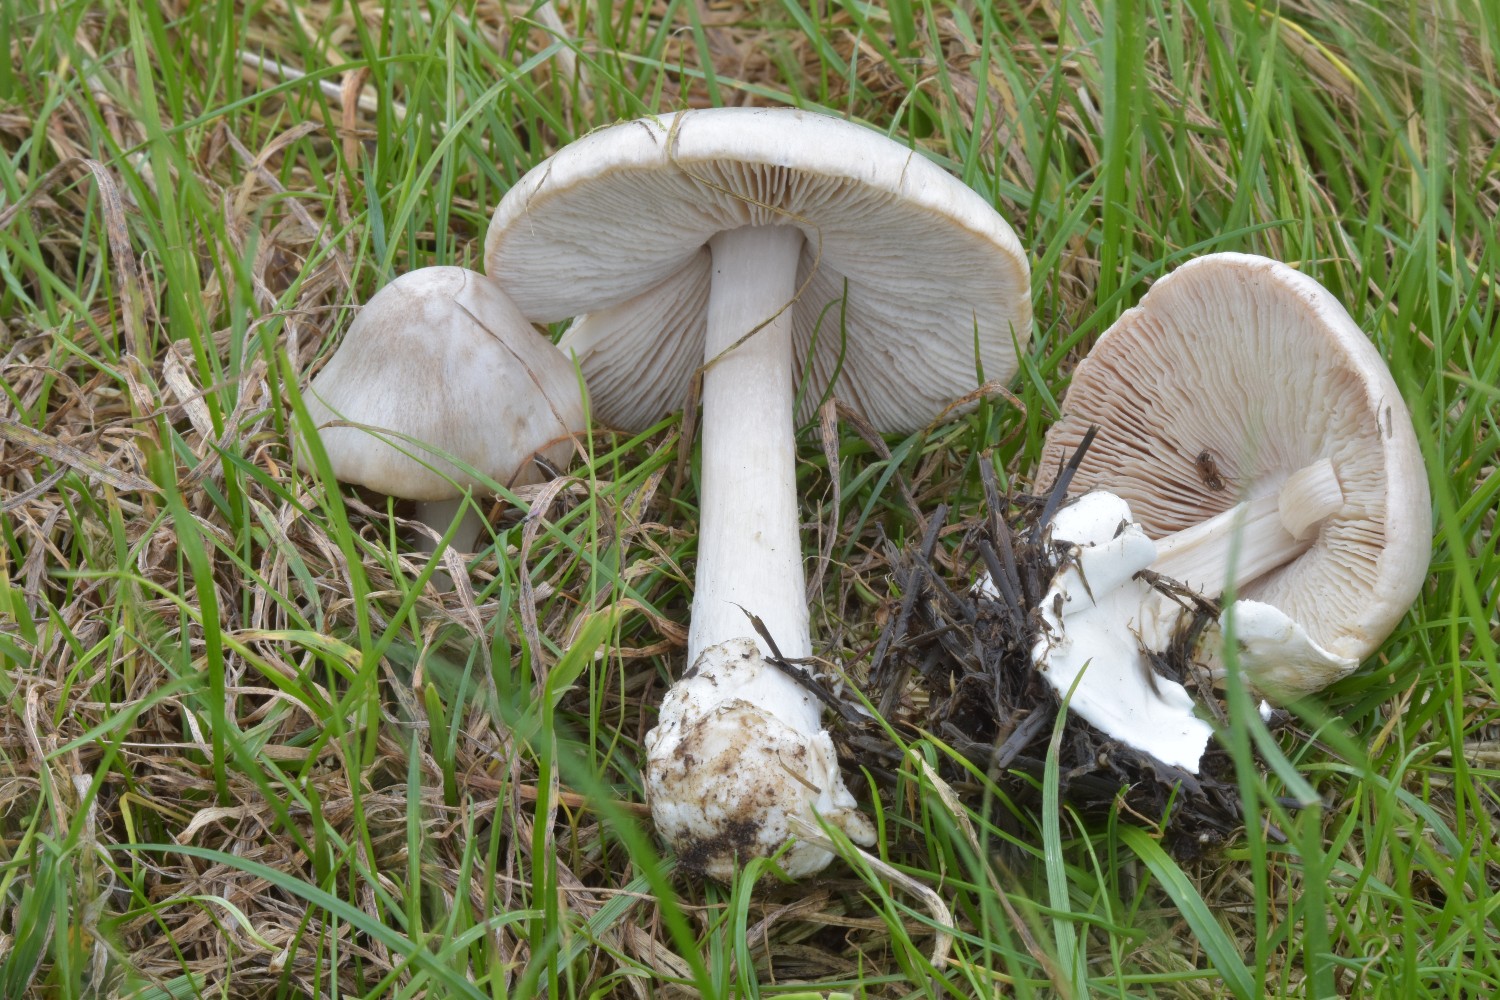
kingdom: Fungi
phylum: Basidiomycota
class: Agaricomycetes
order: Agaricales
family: Pluteaceae
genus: Volvopluteus
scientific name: Volvopluteus gloiocephalus
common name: høj posesvamp
